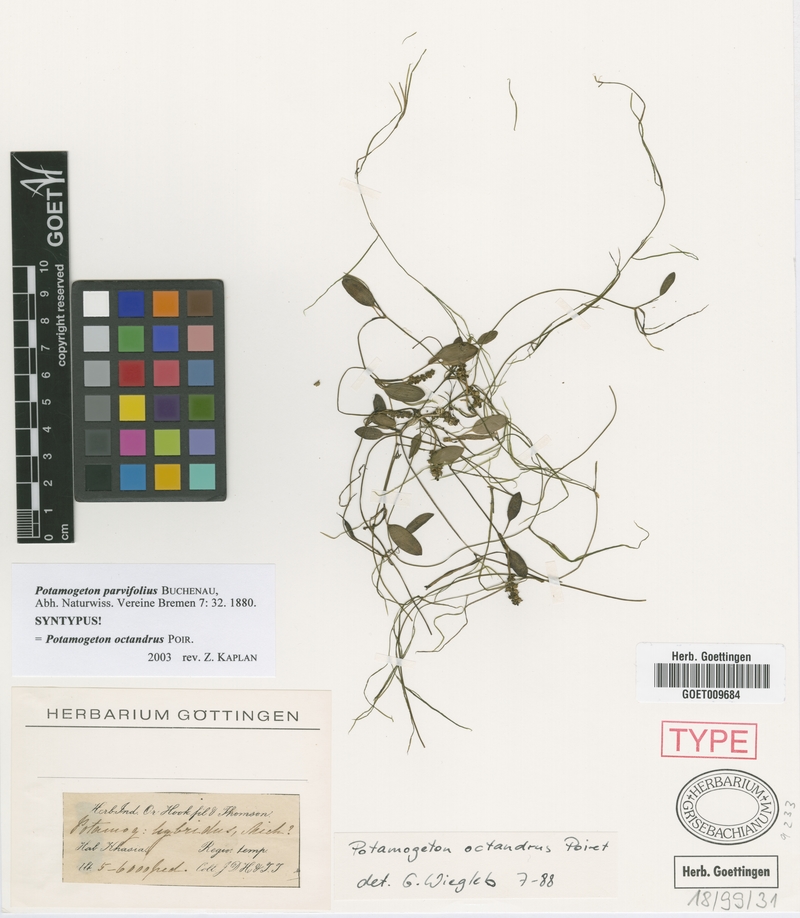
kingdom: Plantae
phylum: Tracheophyta
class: Liliopsida
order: Alismatales
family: Potamogetonaceae
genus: Potamogeton
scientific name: Potamogeton octandrus
